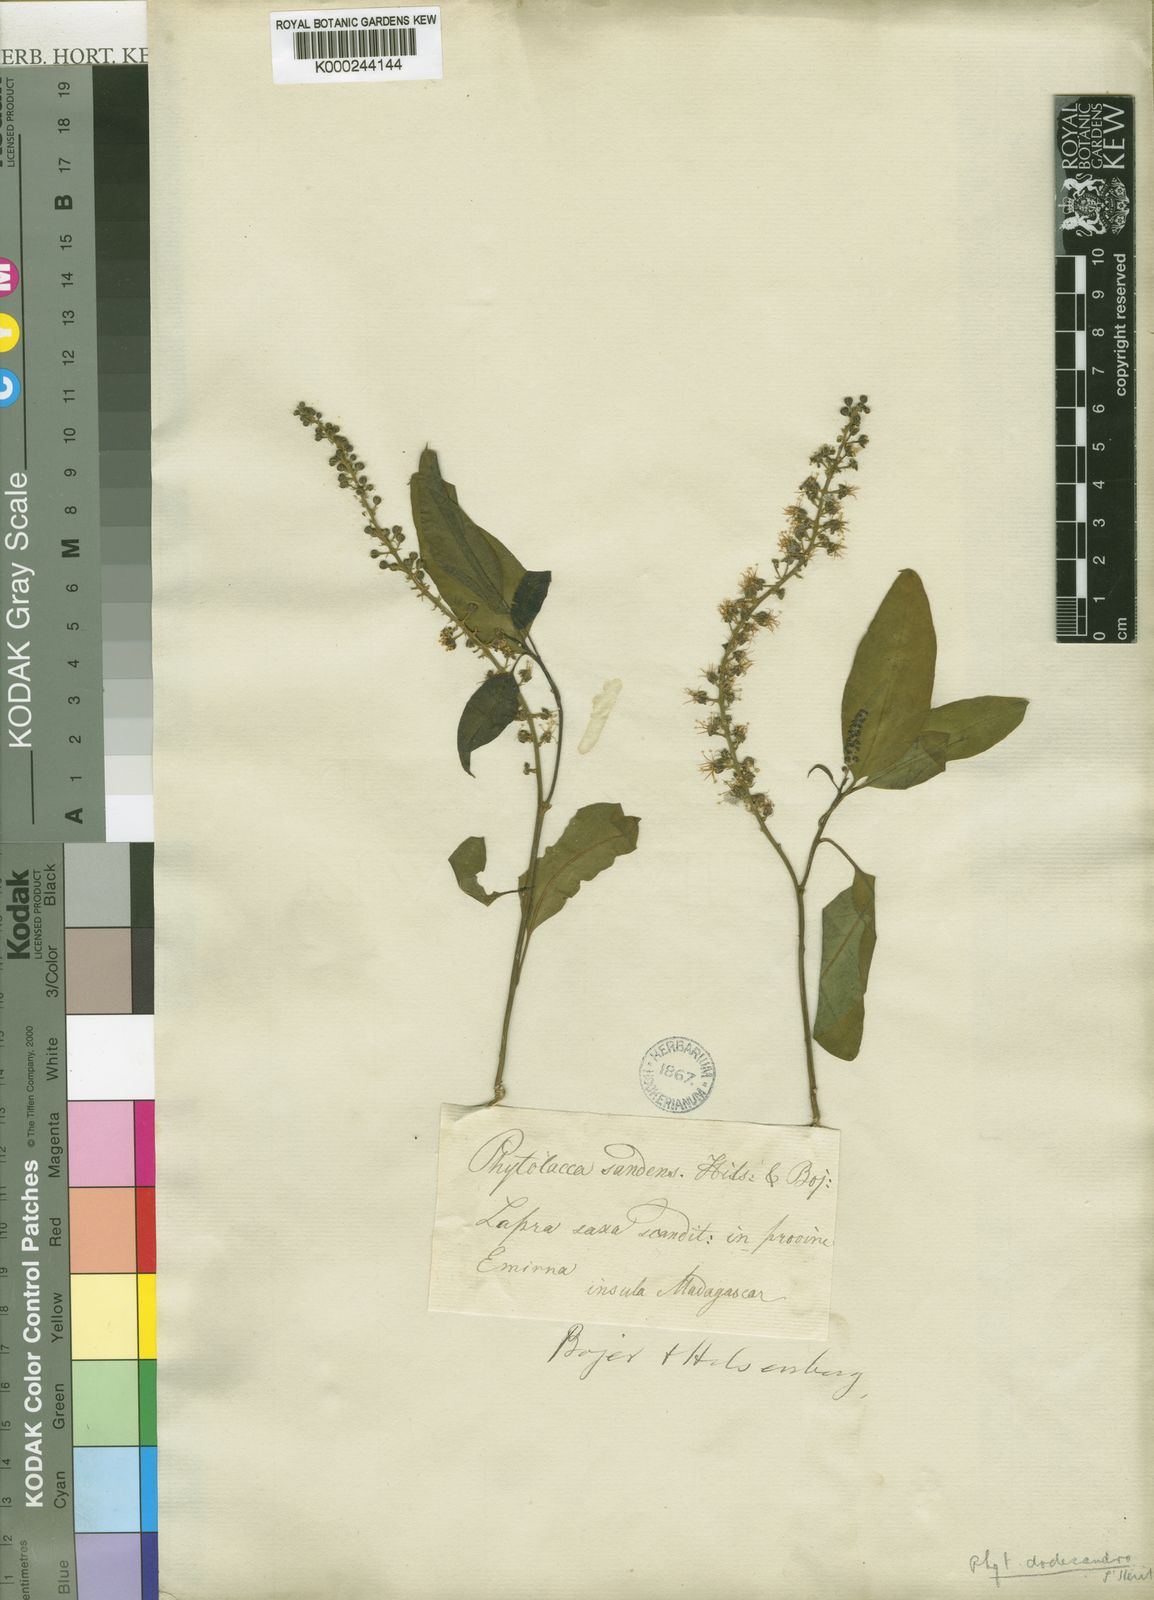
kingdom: Plantae
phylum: Tracheophyta
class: Magnoliopsida
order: Caryophyllales
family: Phytolaccaceae
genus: Phytolacca
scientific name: Phytolacca
